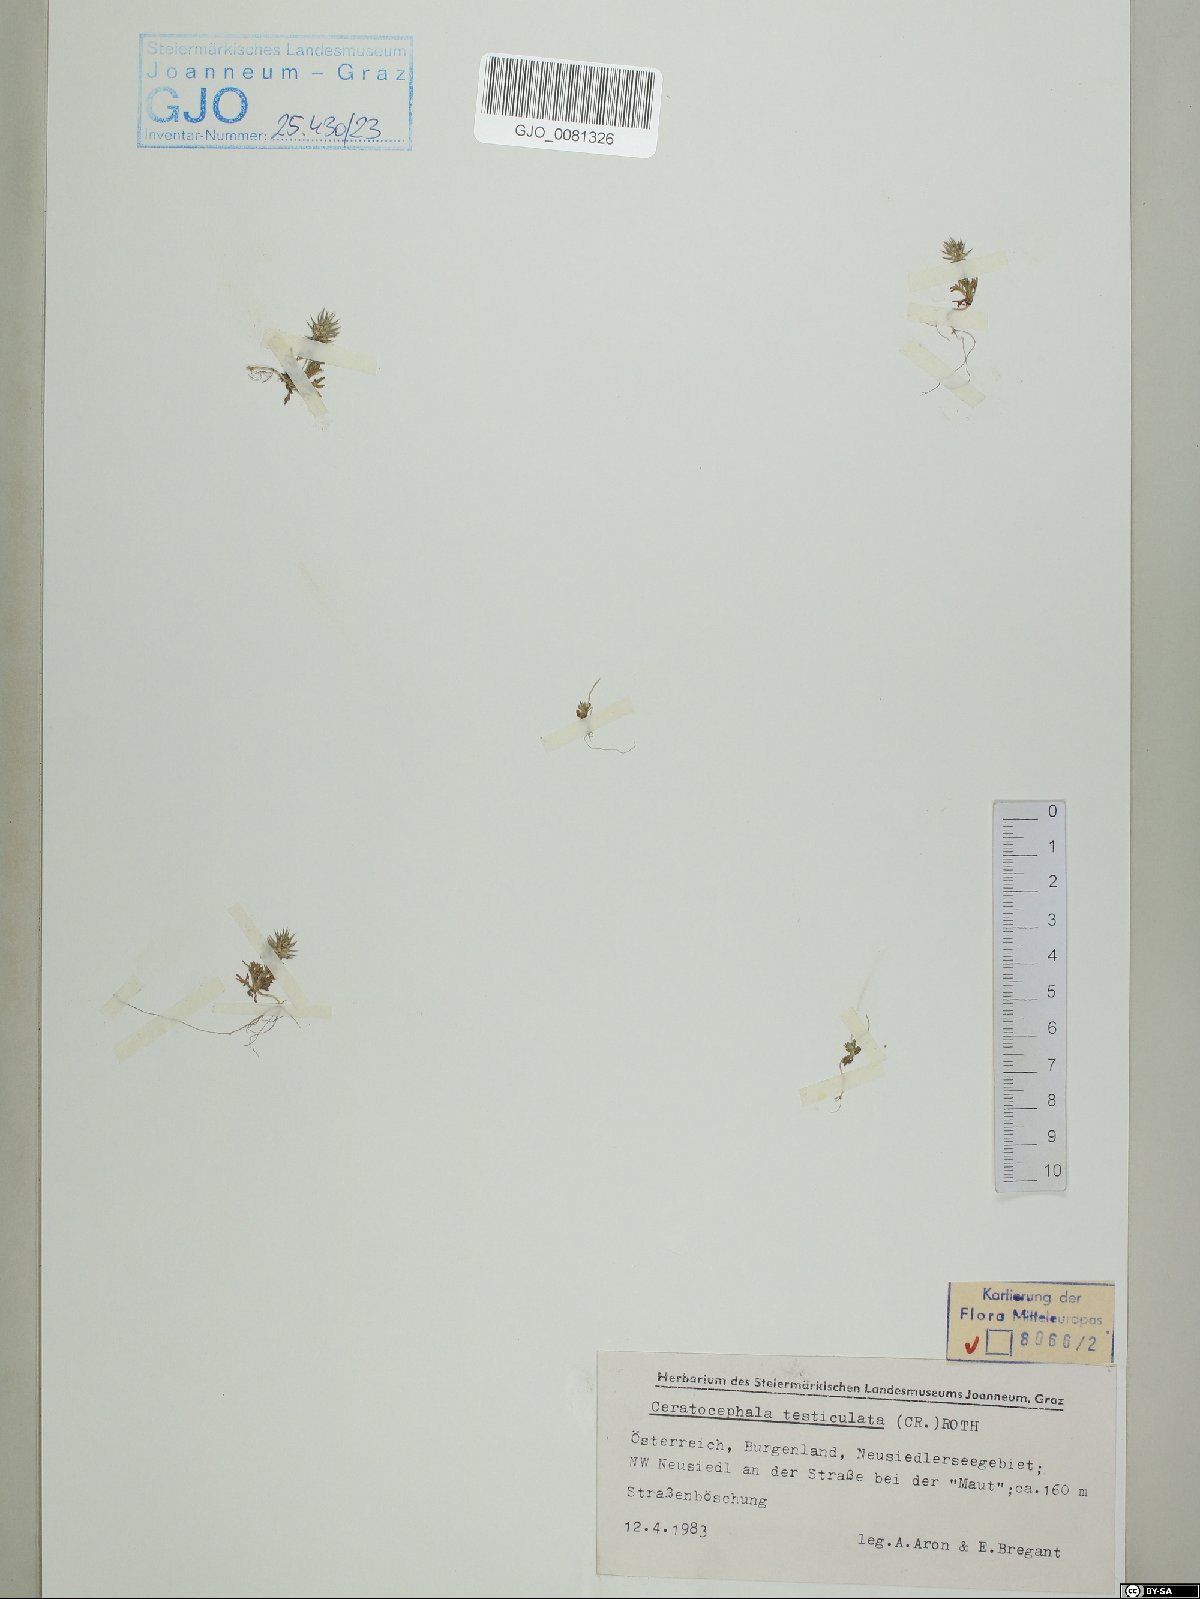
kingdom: Plantae
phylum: Tracheophyta
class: Magnoliopsida
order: Ranunculales
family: Ranunculaceae
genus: Ceratocephala
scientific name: Ceratocephala orthoceras
